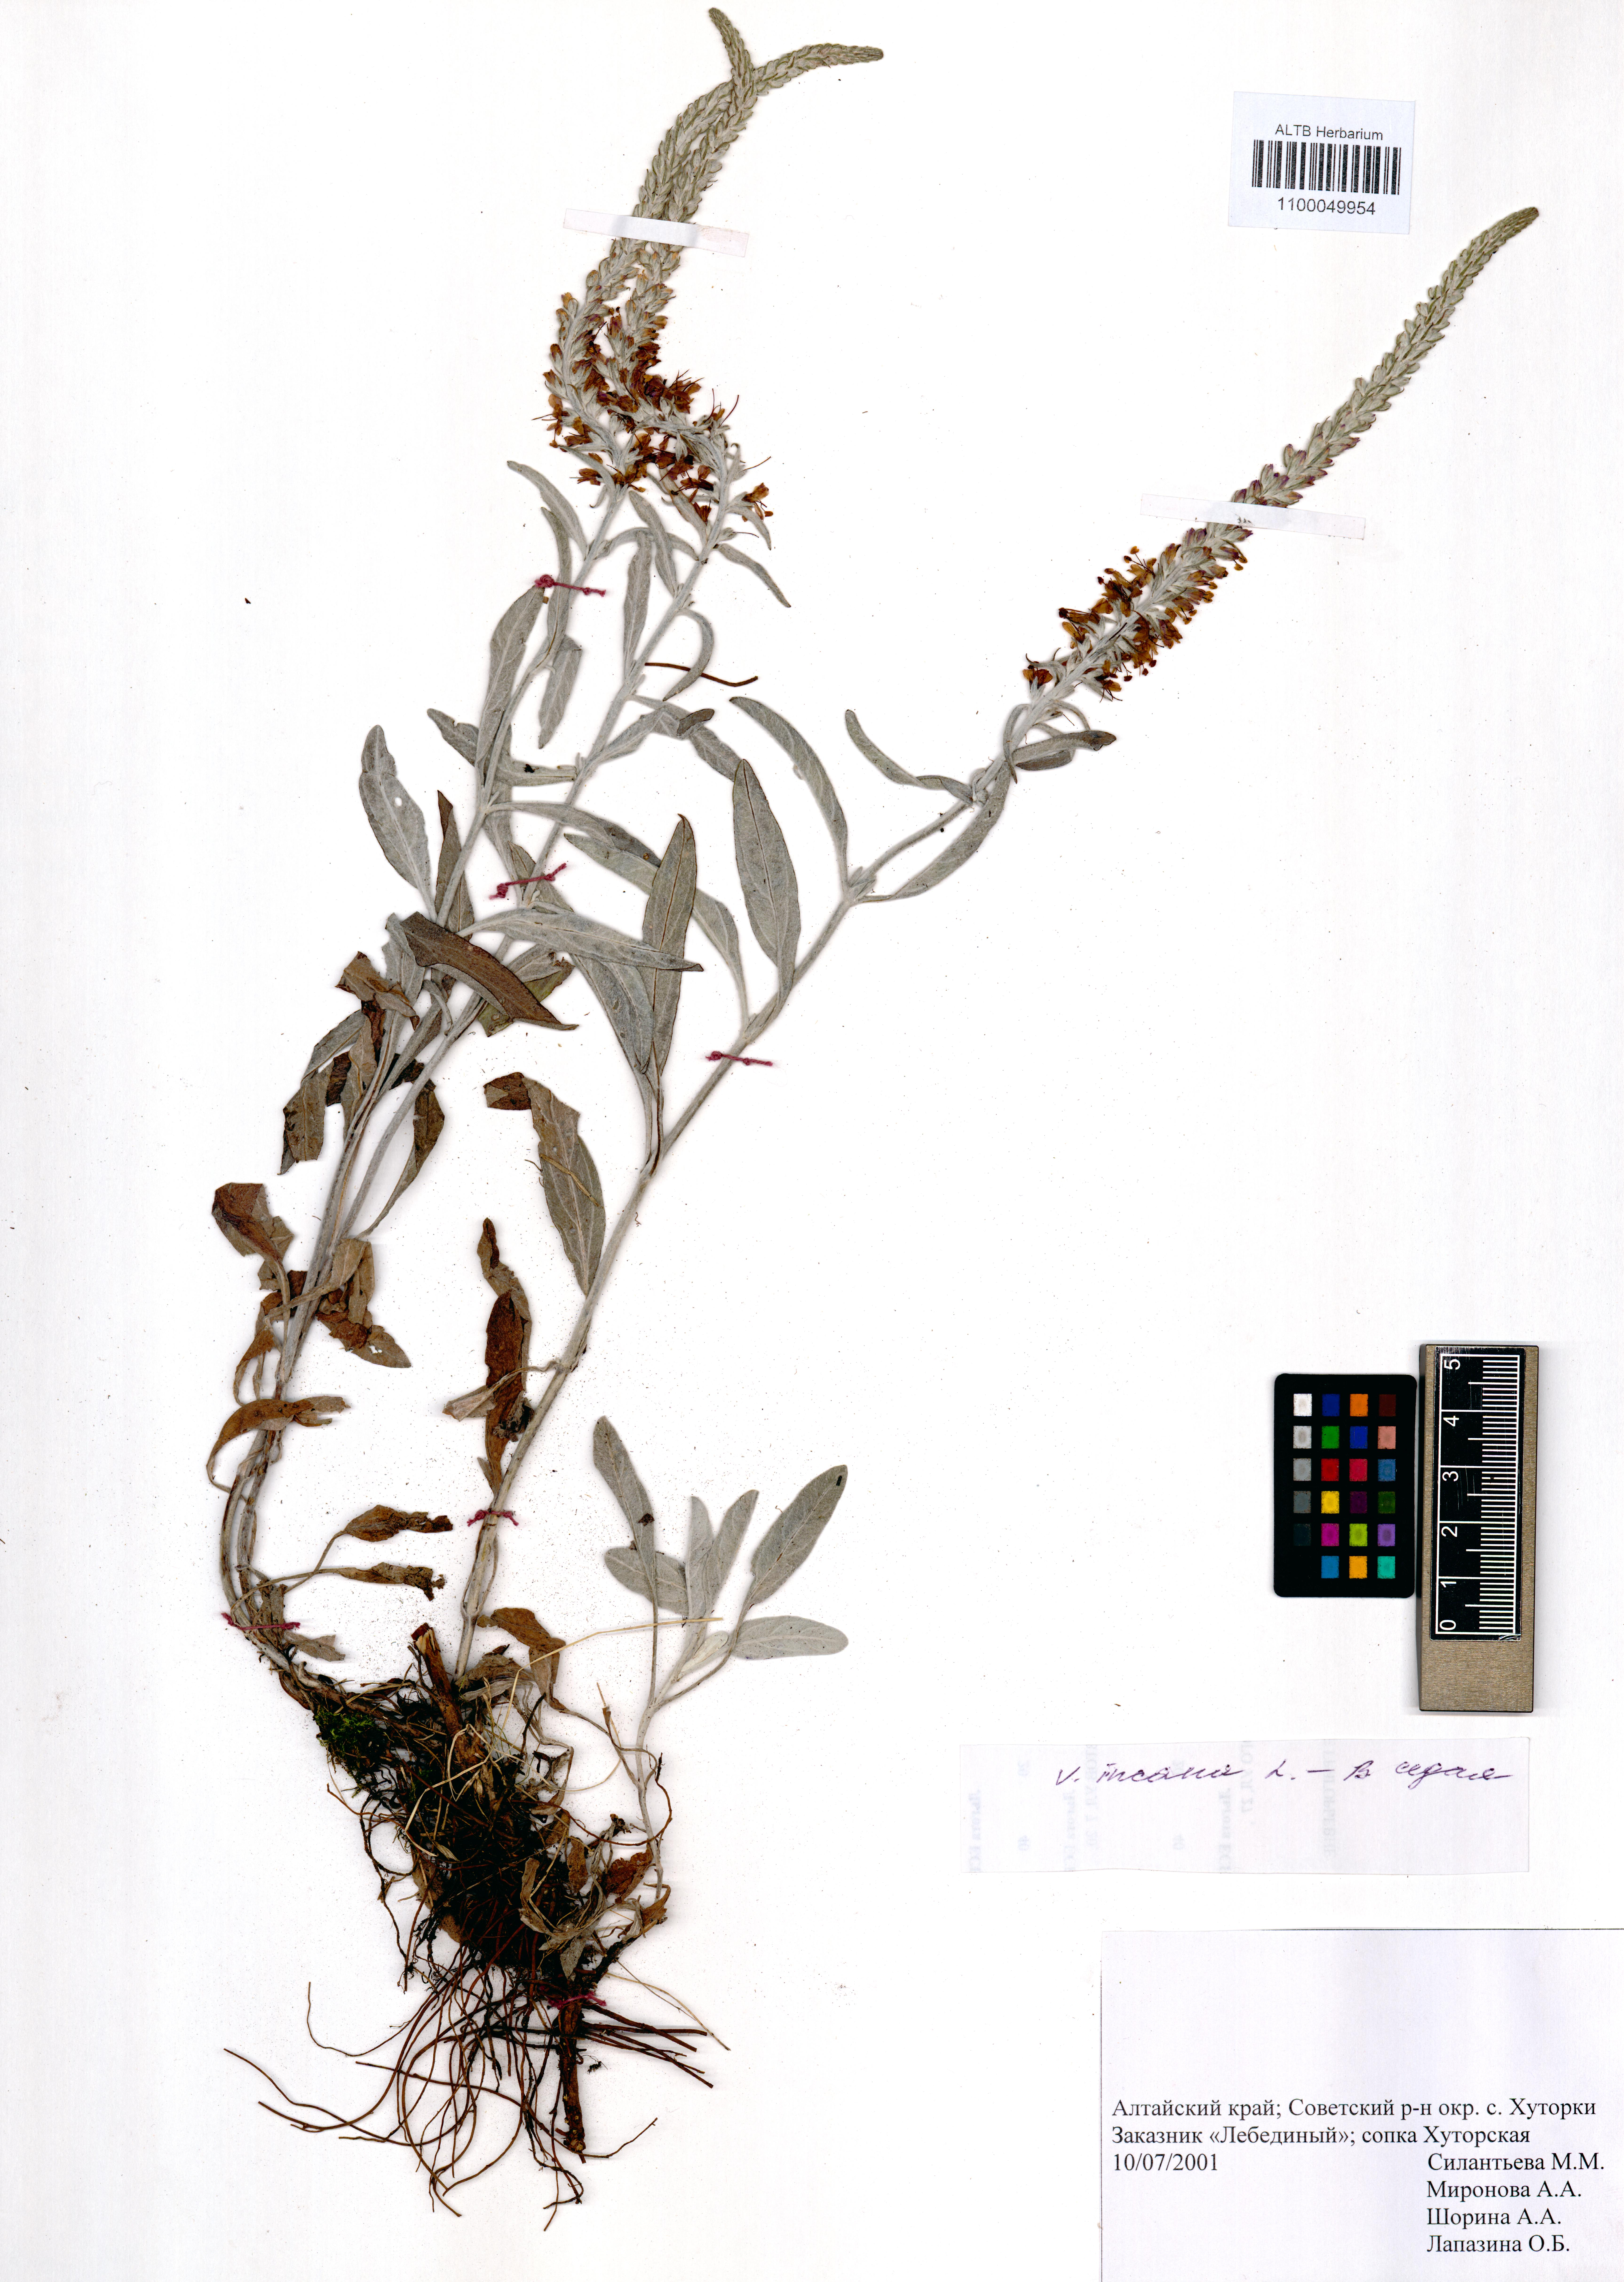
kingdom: Plantae
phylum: Tracheophyta
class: Magnoliopsida
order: Lamiales
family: Plantaginaceae
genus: Veronica
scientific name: Veronica incana
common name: Silver speedwell
